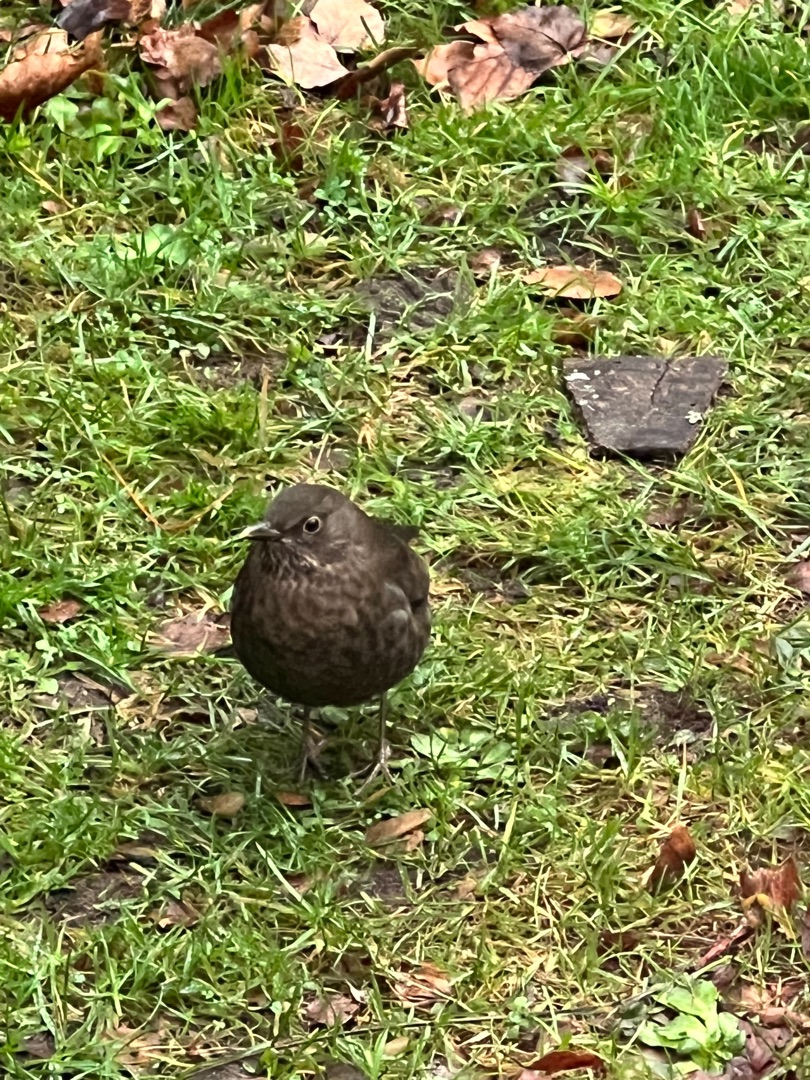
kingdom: Animalia
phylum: Chordata
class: Aves
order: Passeriformes
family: Turdidae
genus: Turdus
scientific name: Turdus merula
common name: Solsort
